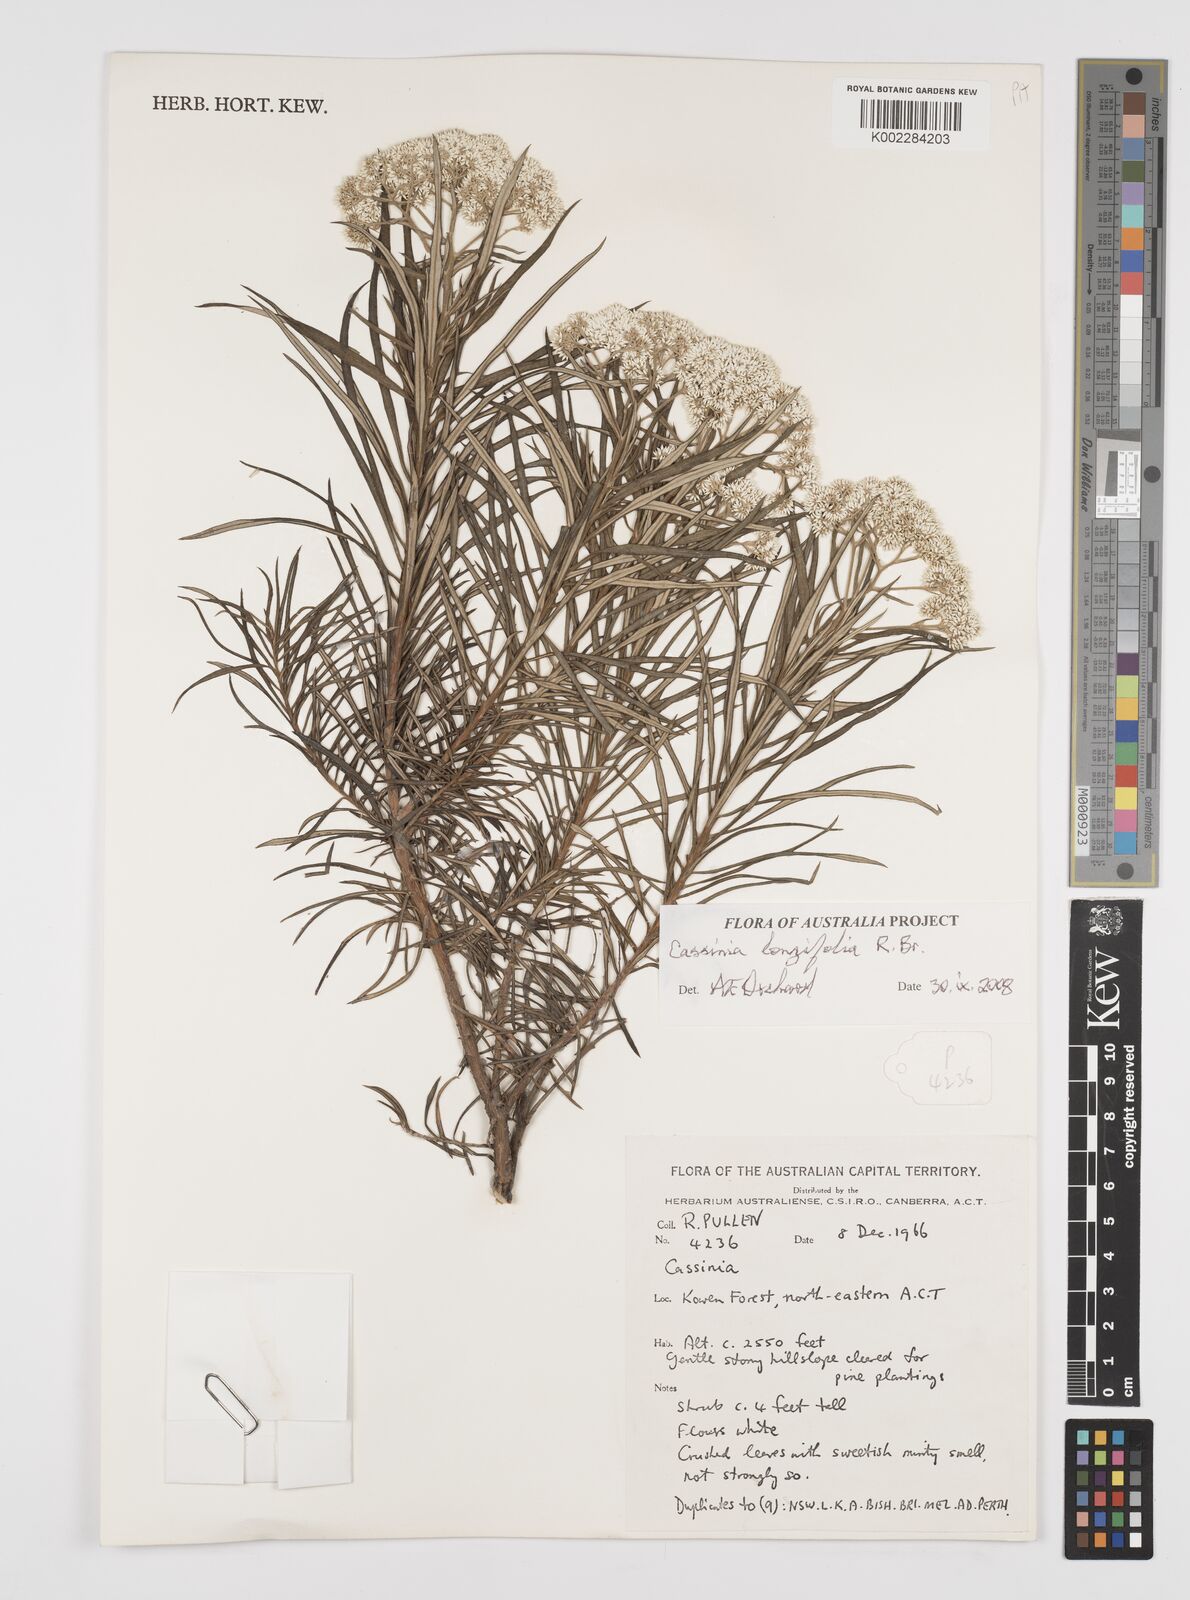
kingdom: Plantae
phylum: Tracheophyta
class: Magnoliopsida
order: Asterales
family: Asteraceae
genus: Cassinia
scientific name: Cassinia longifolia
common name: Longleaf-dogwood
